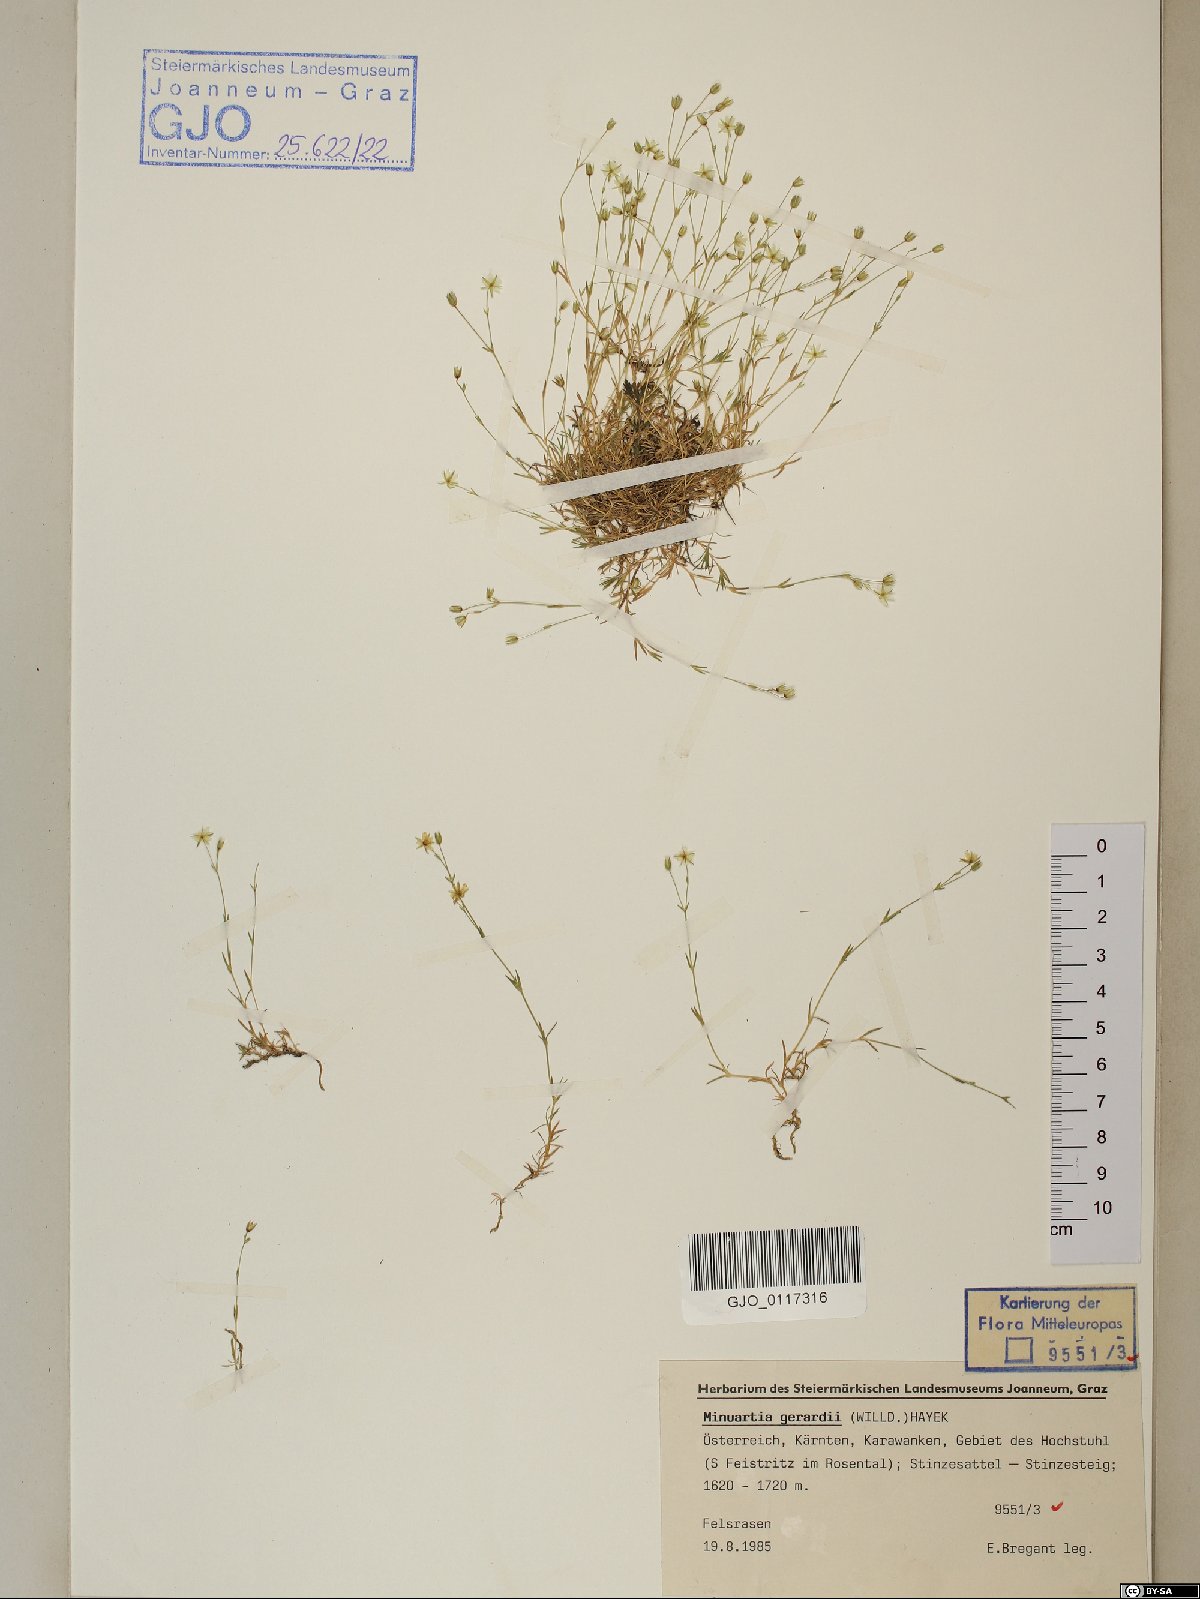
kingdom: Plantae
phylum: Tracheophyta
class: Magnoliopsida
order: Caryophyllales
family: Caryophyllaceae
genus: Sabulina
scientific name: Sabulina verna
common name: Spring sandwort
